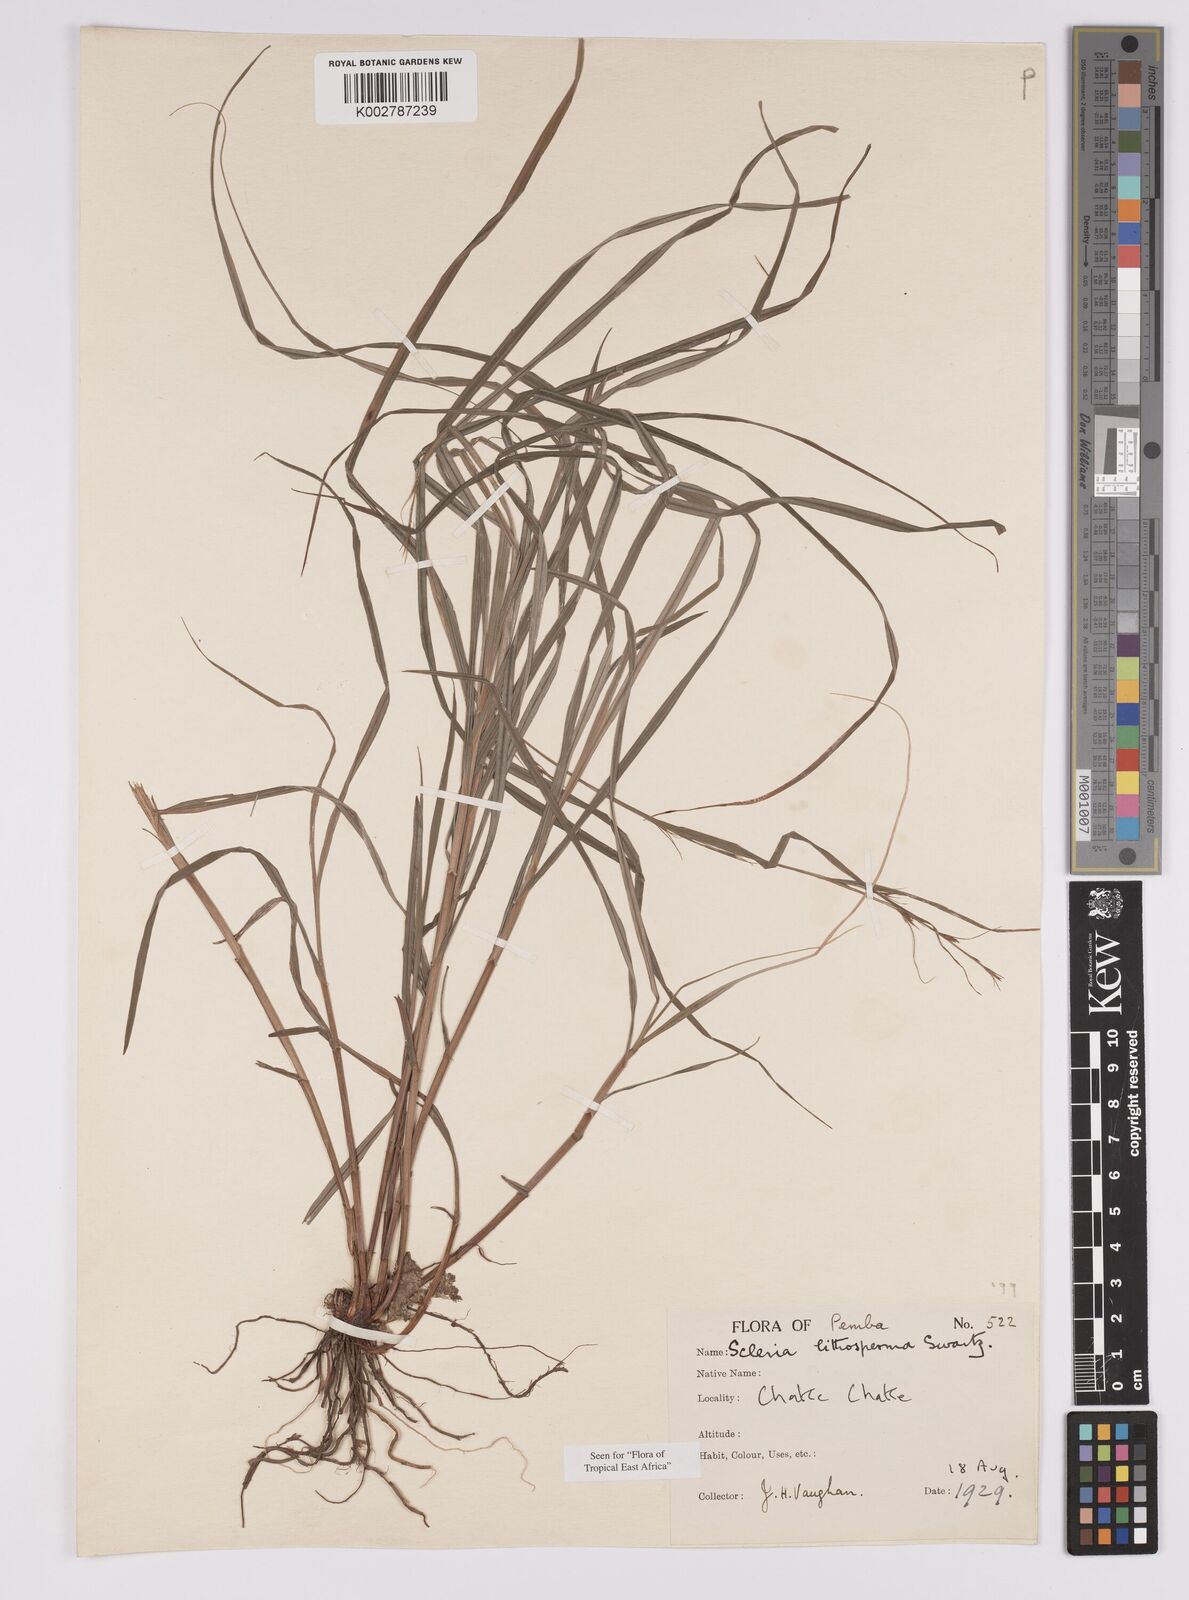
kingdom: Plantae
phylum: Tracheophyta
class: Liliopsida
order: Poales
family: Cyperaceae
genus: Scleria
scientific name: Scleria lithosperma
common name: Florida keys nut-rush
